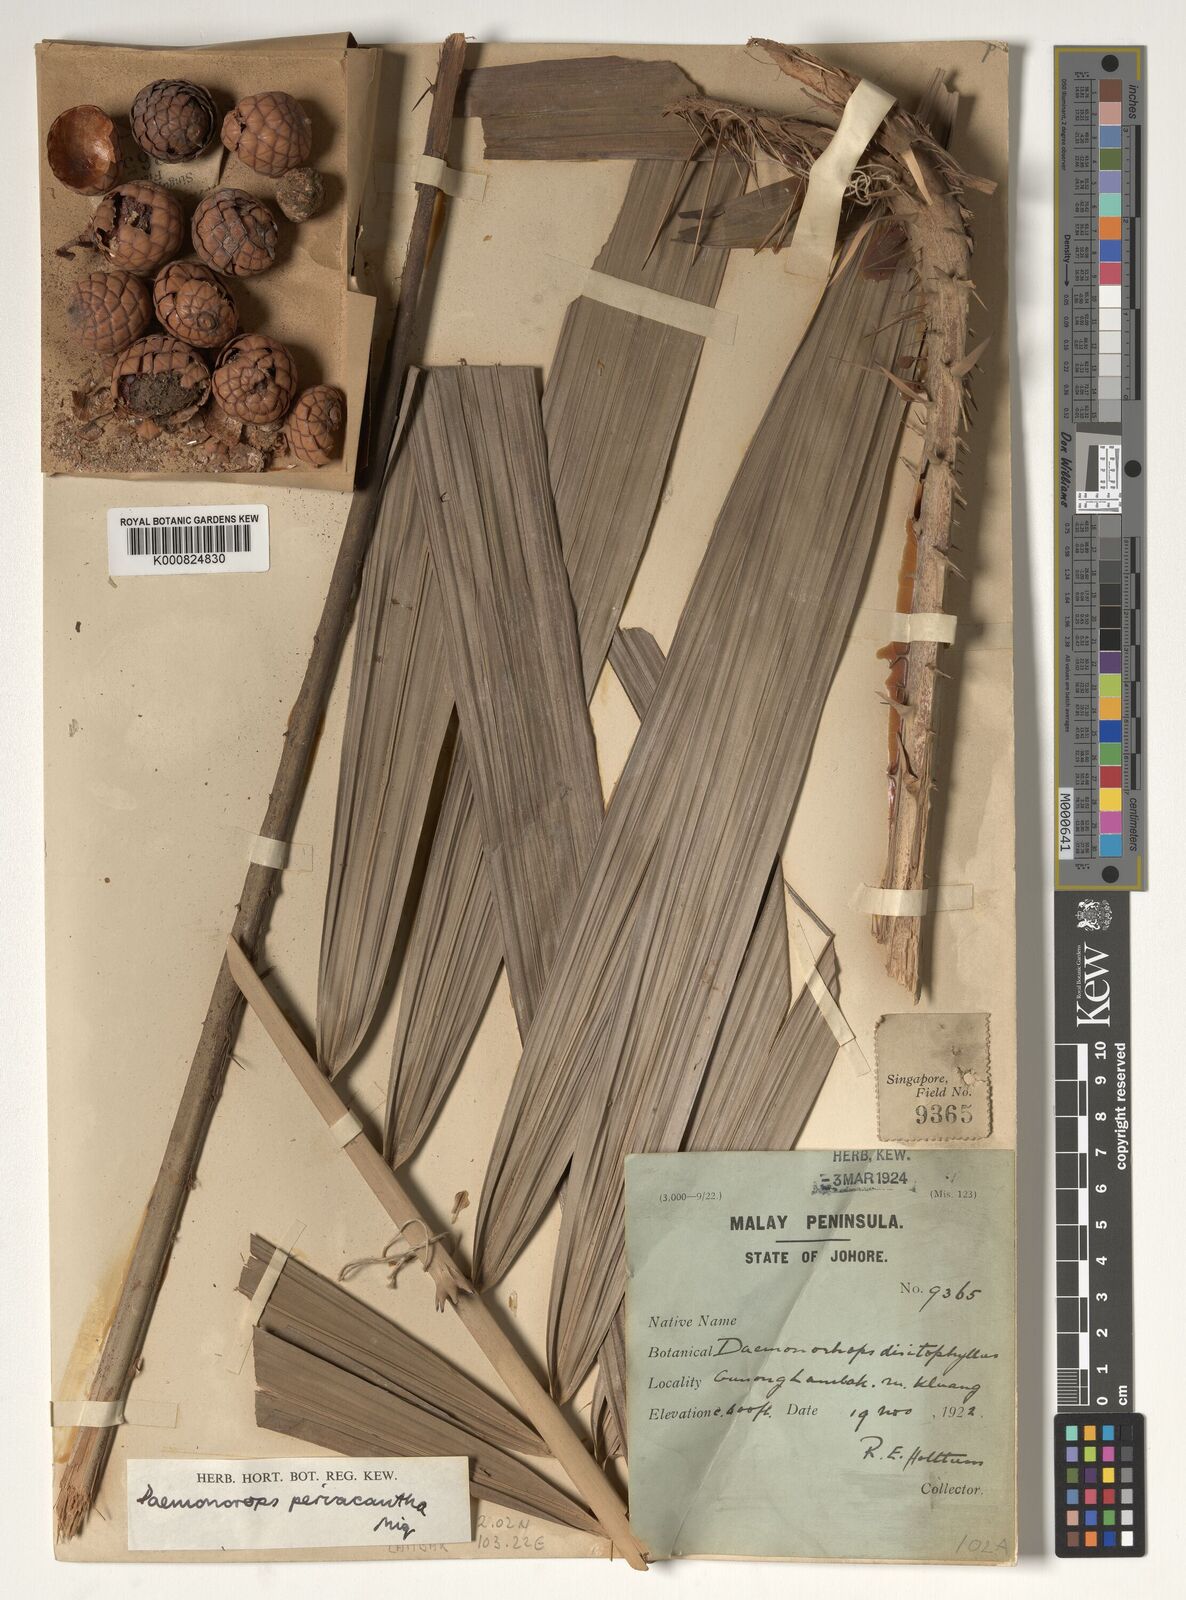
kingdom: Plantae
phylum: Tracheophyta
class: Liliopsida
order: Arecales
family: Arecaceae
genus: Calamus
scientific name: Calamus periacanthus
